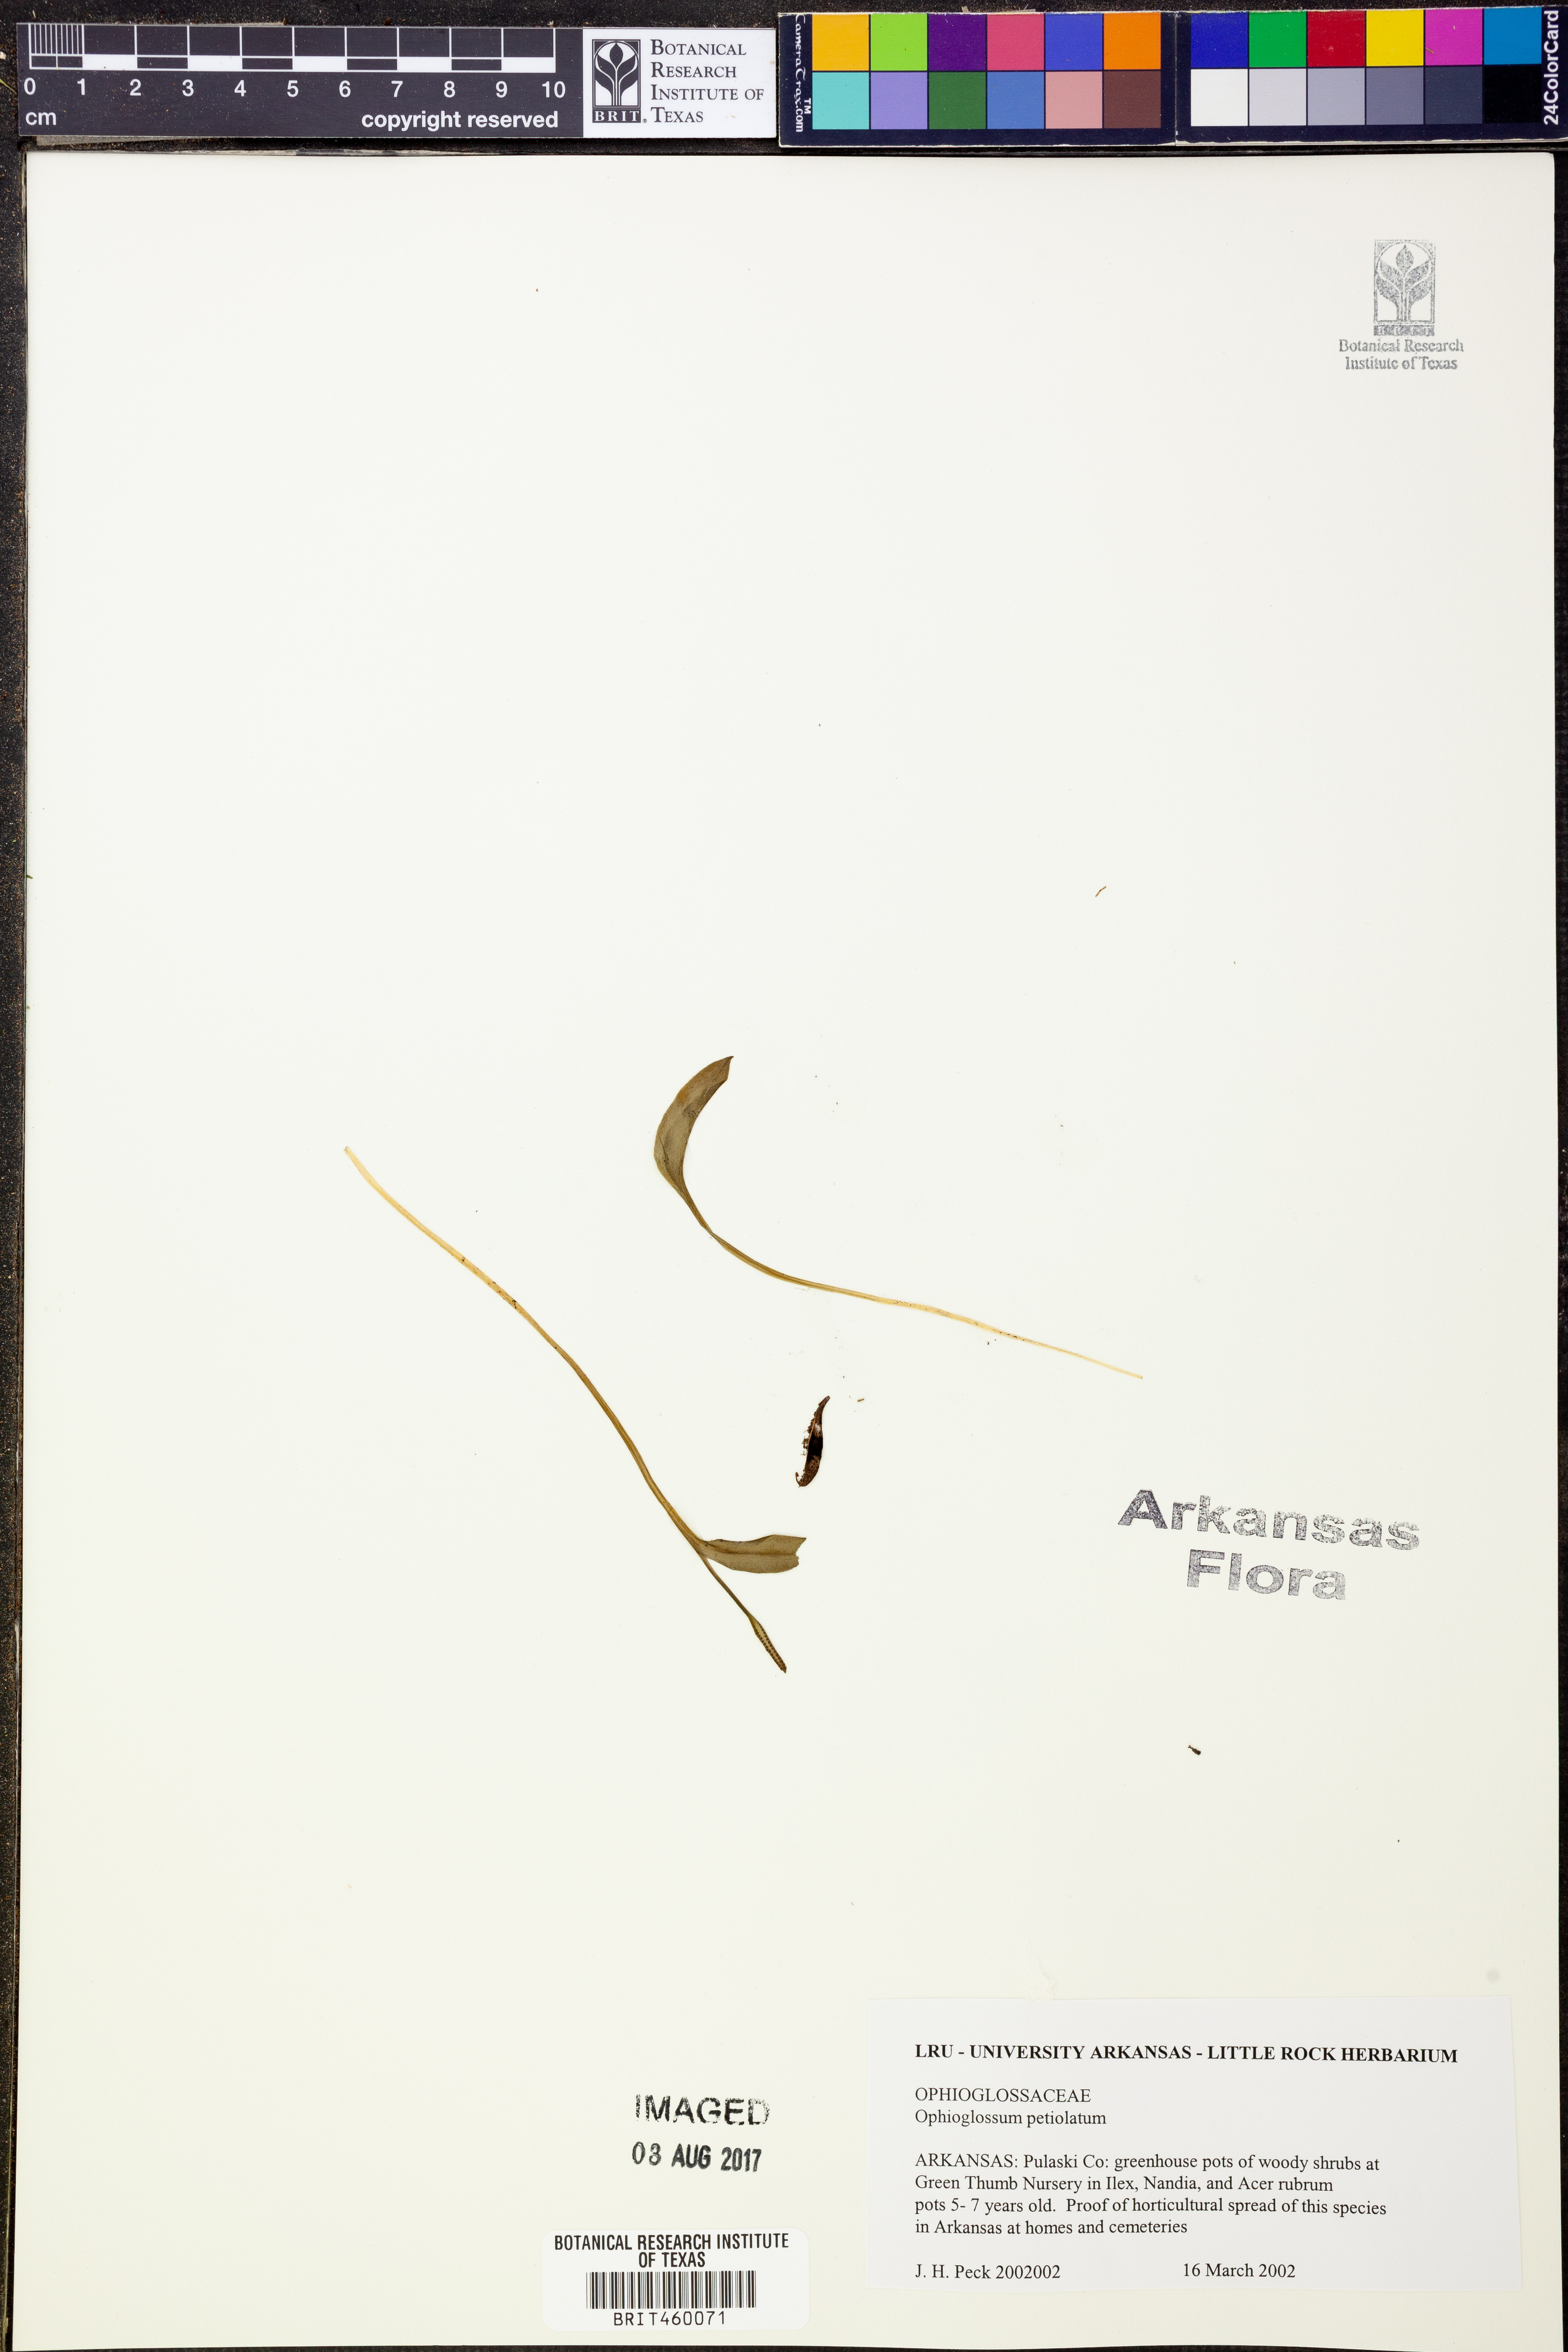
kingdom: Plantae
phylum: Tracheophyta
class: Polypodiopsida
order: Ophioglossales
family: Ophioglossaceae
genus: Ophioglossum
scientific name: Ophioglossum petiolatum
